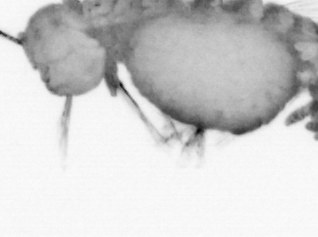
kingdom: Animalia
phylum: Annelida
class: Polychaeta
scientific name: Polychaeta
